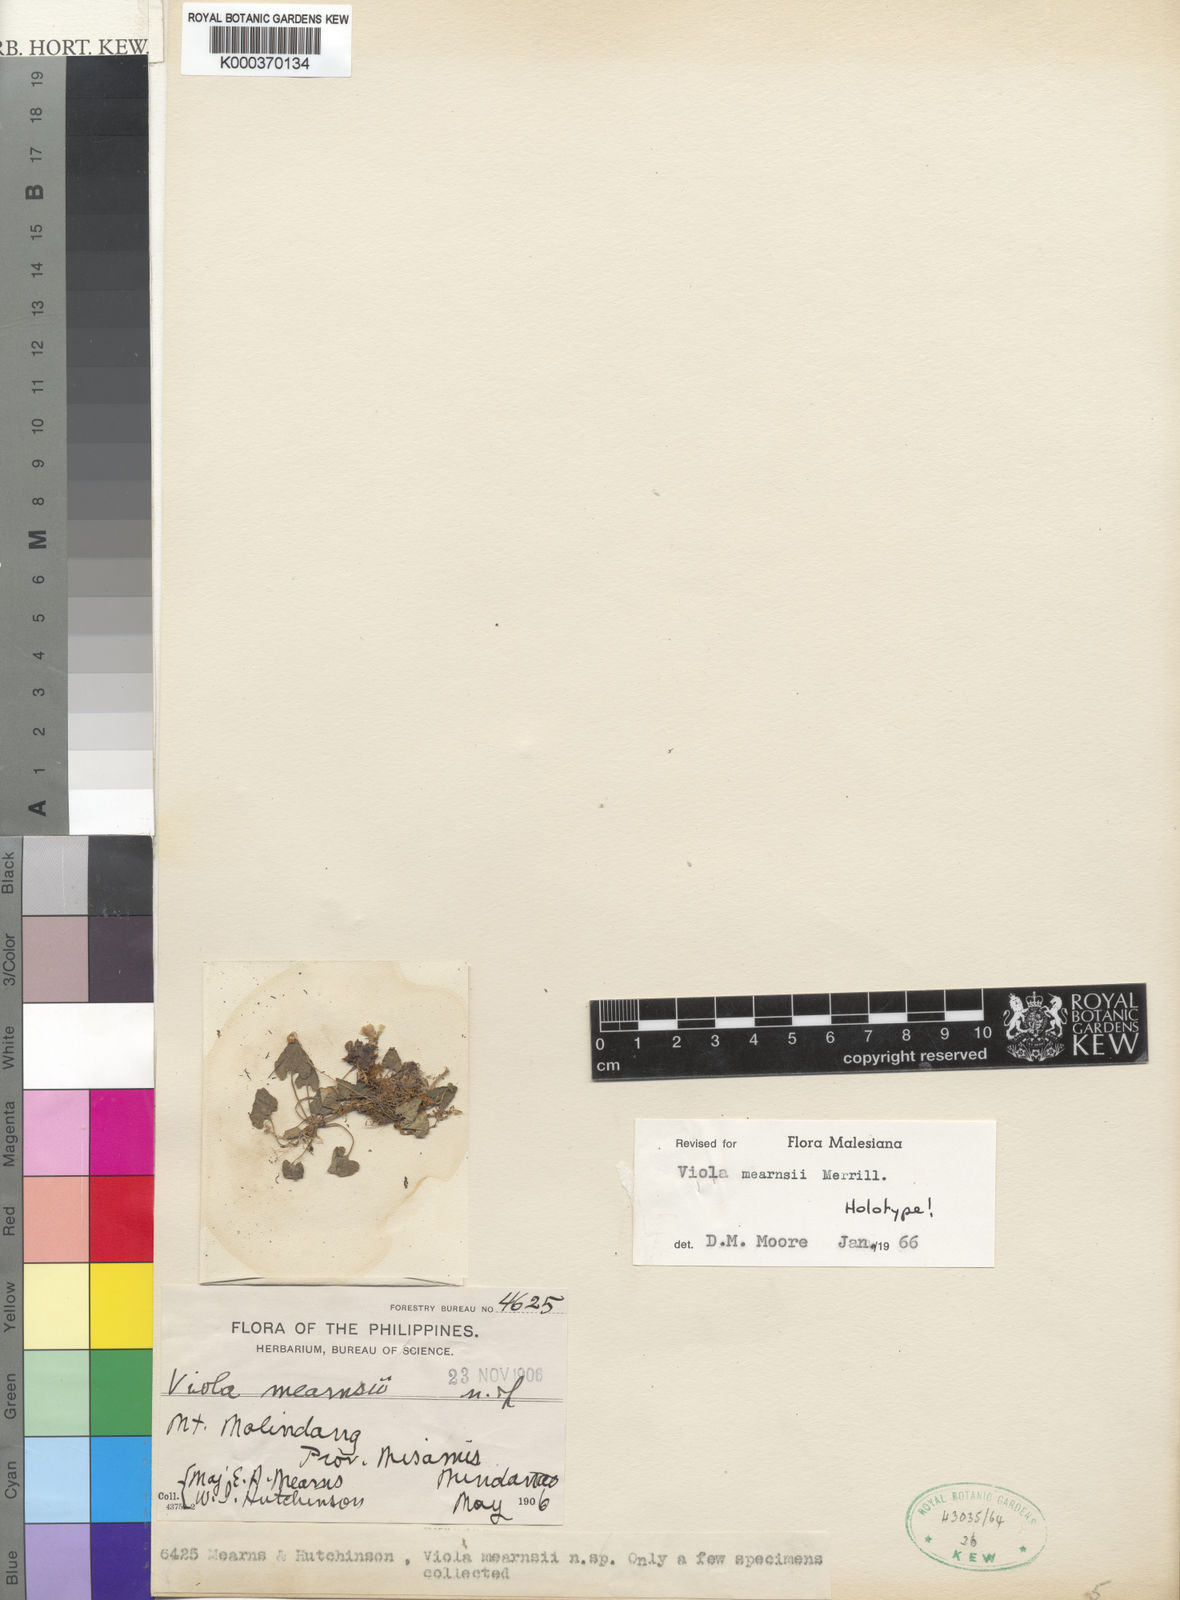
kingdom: Plantae
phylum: Tracheophyta
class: Magnoliopsida
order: Malpighiales
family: Violaceae
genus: Viola
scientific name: Viola mearnsii
